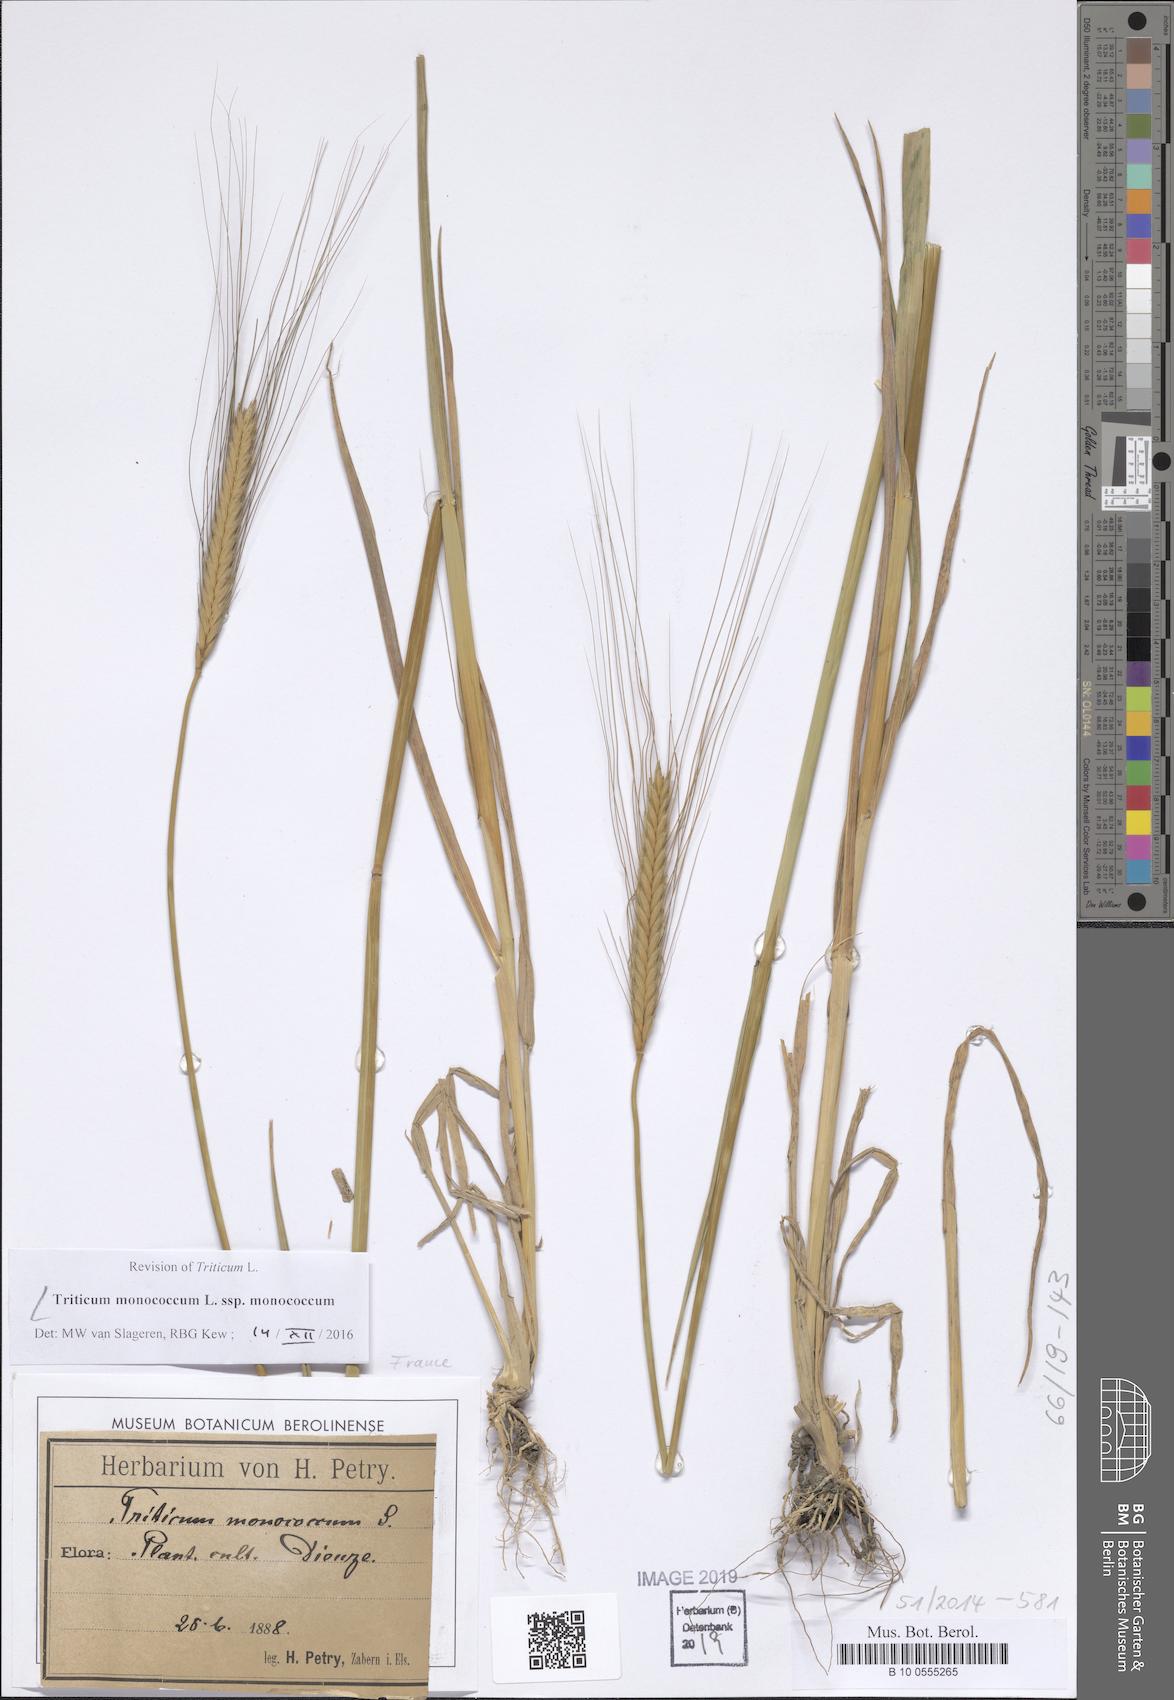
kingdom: Plantae
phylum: Tracheophyta
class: Liliopsida
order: Poales
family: Poaceae
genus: Triticum
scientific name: Triticum monococcum
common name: Einkorn
